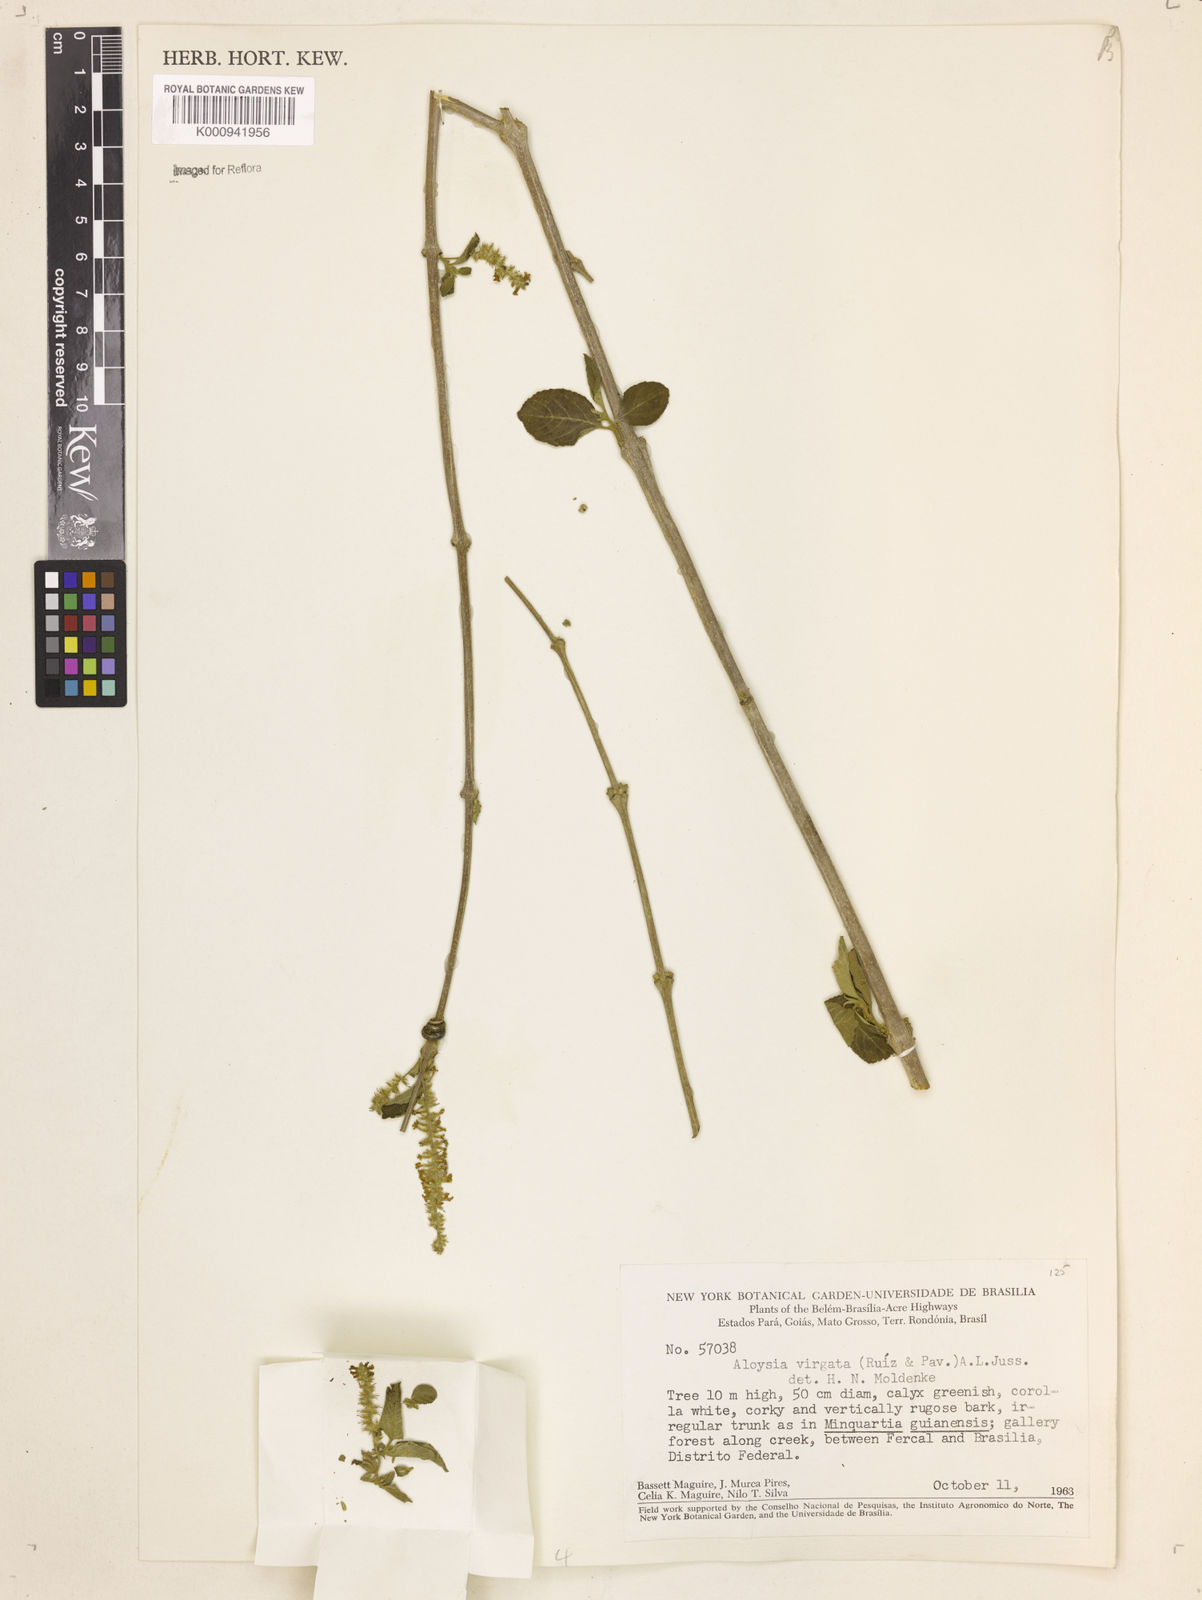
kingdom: Plantae
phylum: Tracheophyta
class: Magnoliopsida
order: Lamiales
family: Verbenaceae
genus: Aloysia
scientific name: Aloysia
